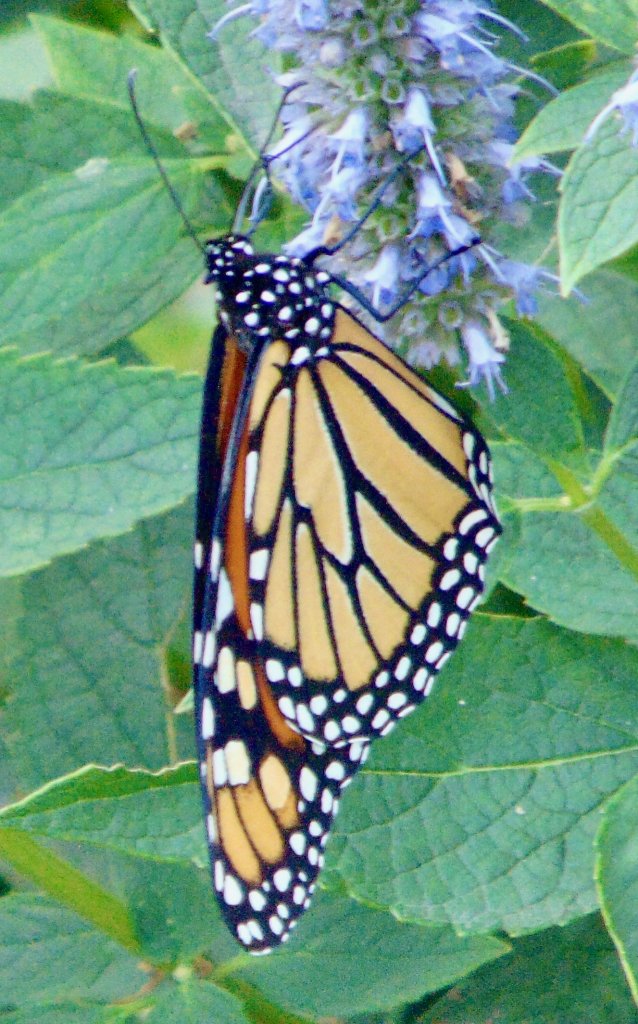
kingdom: Animalia
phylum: Arthropoda
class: Insecta
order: Lepidoptera
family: Nymphalidae
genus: Danaus
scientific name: Danaus plexippus
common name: Monarch
